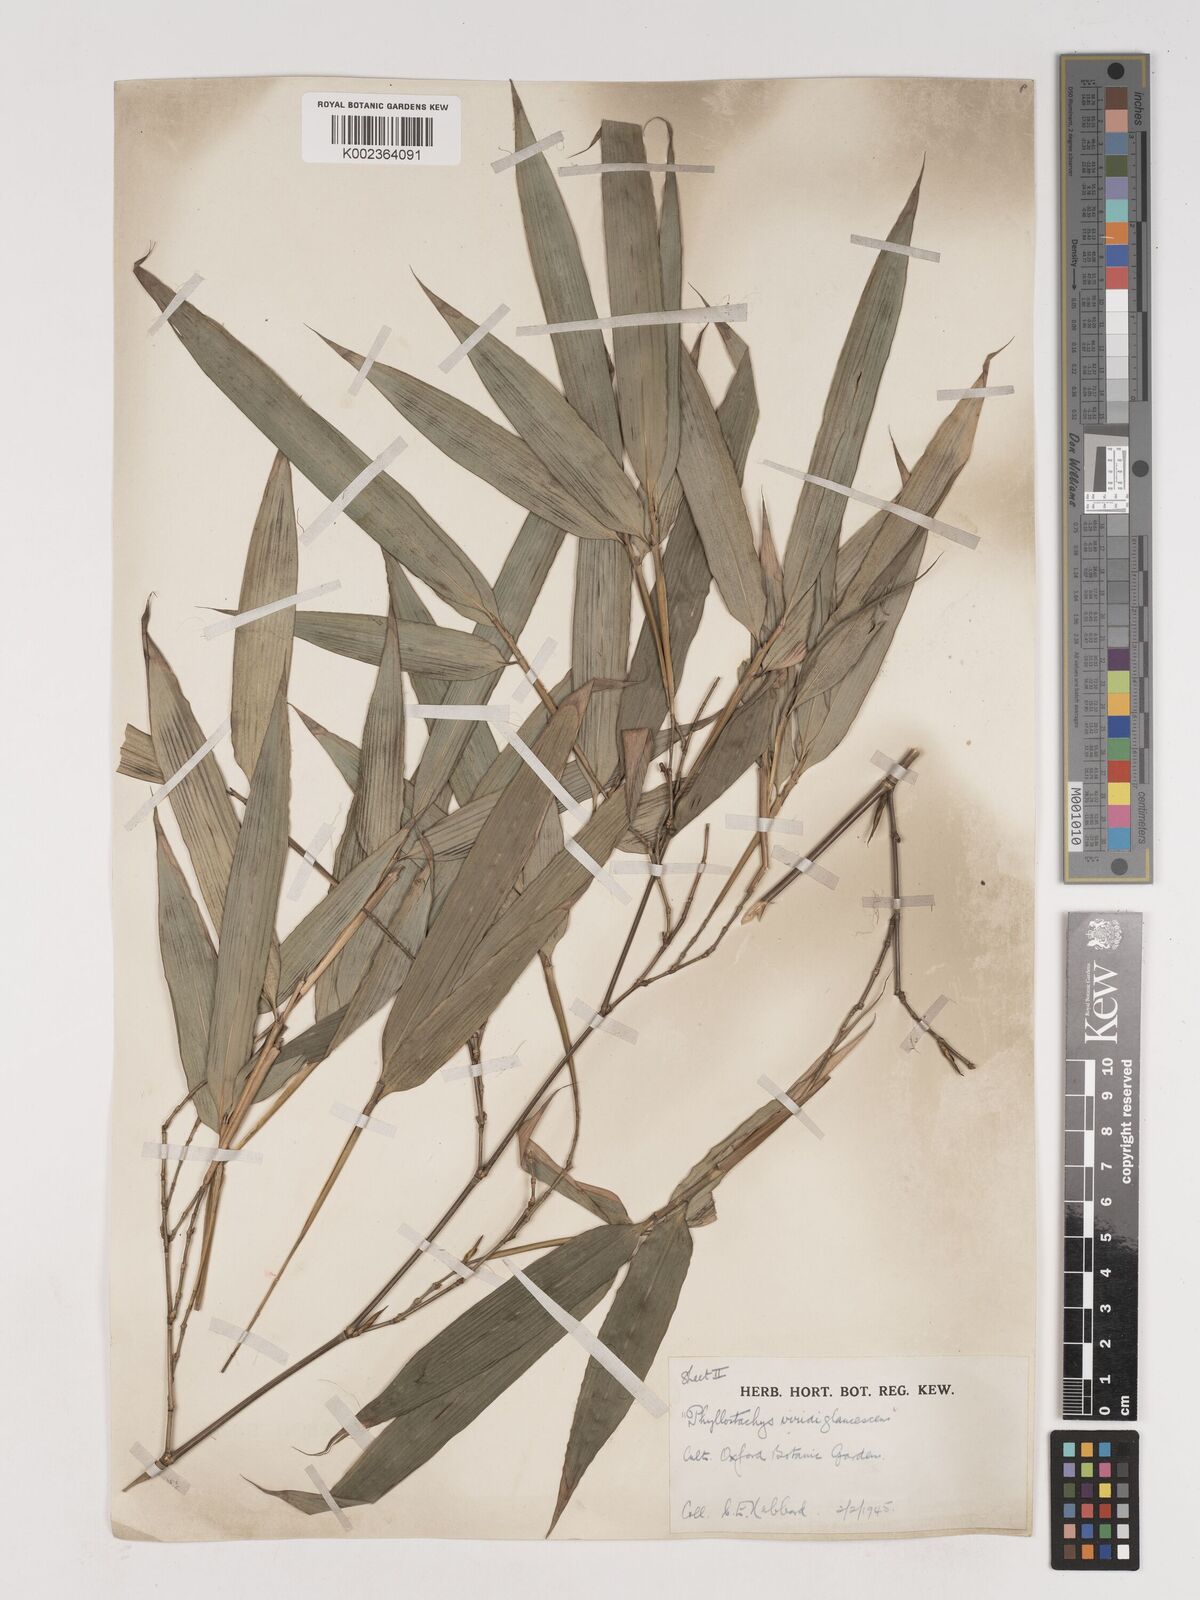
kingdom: Plantae
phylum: Tracheophyta
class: Liliopsida
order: Poales
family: Poaceae
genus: Phyllostachys
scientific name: Phyllostachys viridiglaucescens
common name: Greenwax golden bamboo
